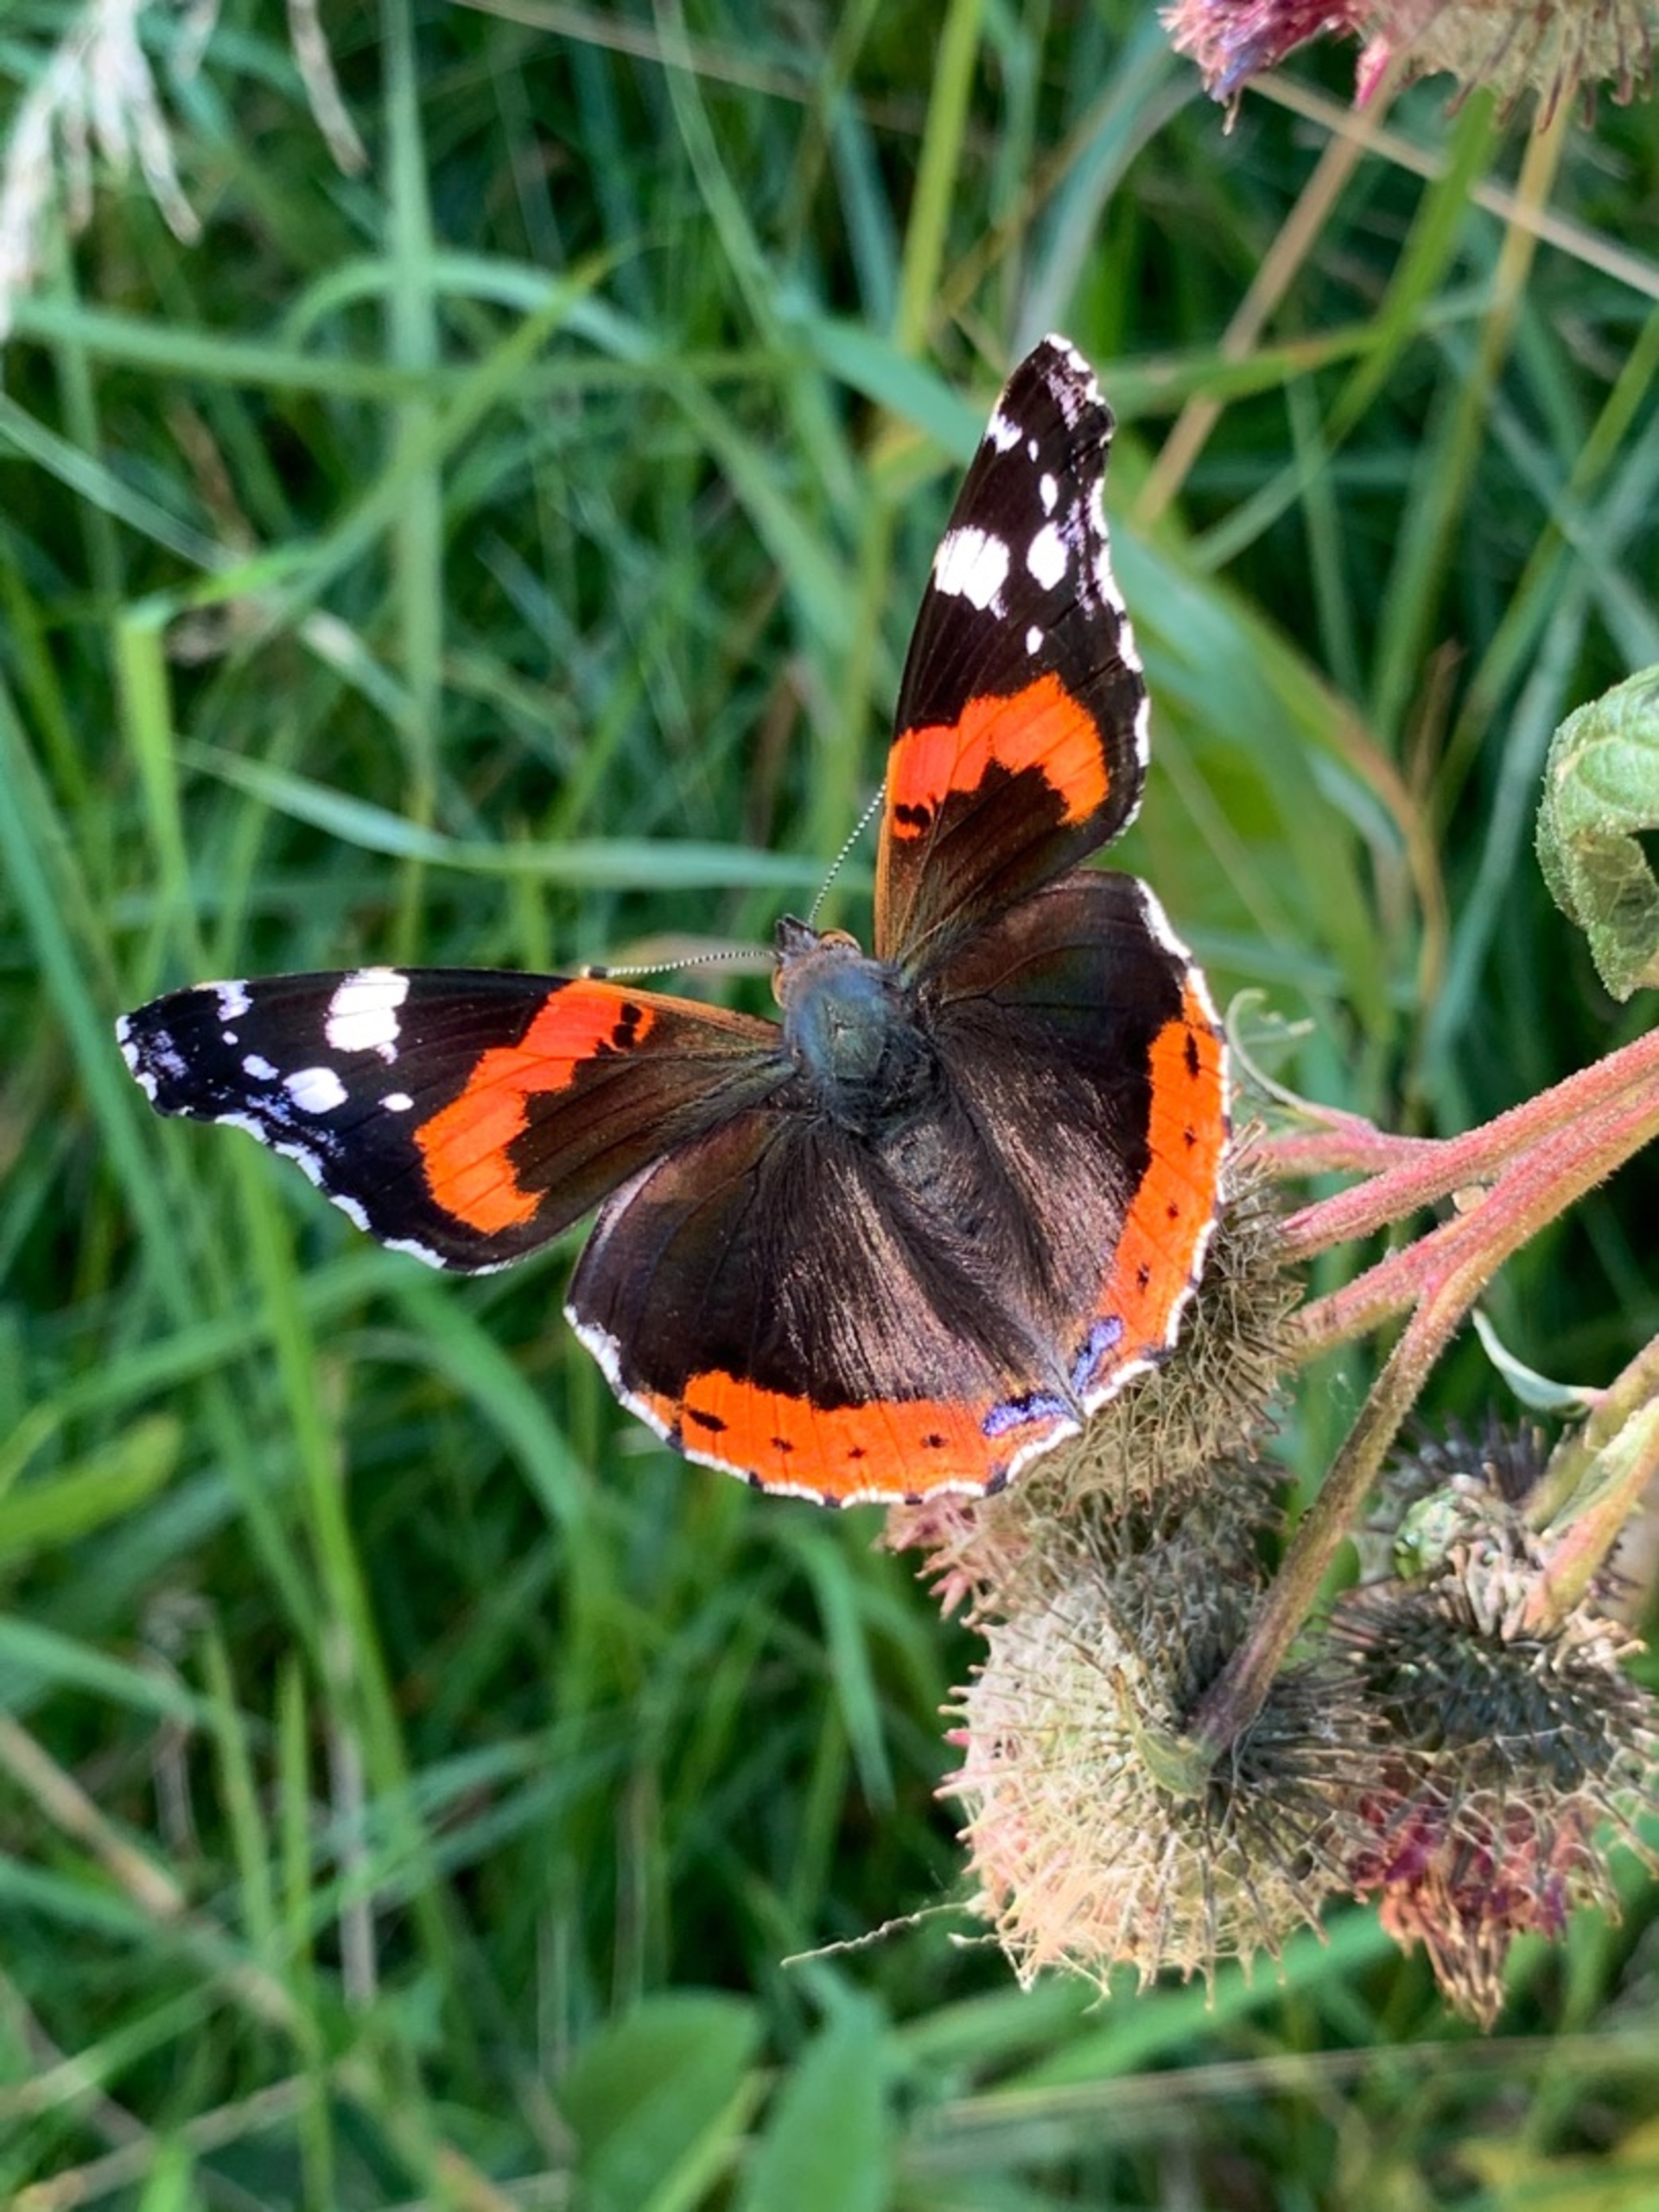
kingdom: Animalia
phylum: Arthropoda
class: Insecta
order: Lepidoptera
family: Nymphalidae
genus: Vanessa
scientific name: Vanessa atalanta
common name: Admiral
